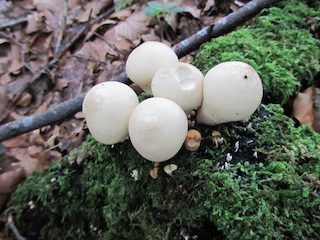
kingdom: Fungi
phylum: Basidiomycota
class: Agaricomycetes
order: Agaricales
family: Lycoperdaceae
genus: Apioperdon
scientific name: Apioperdon pyriforme
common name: pære-støvbold
